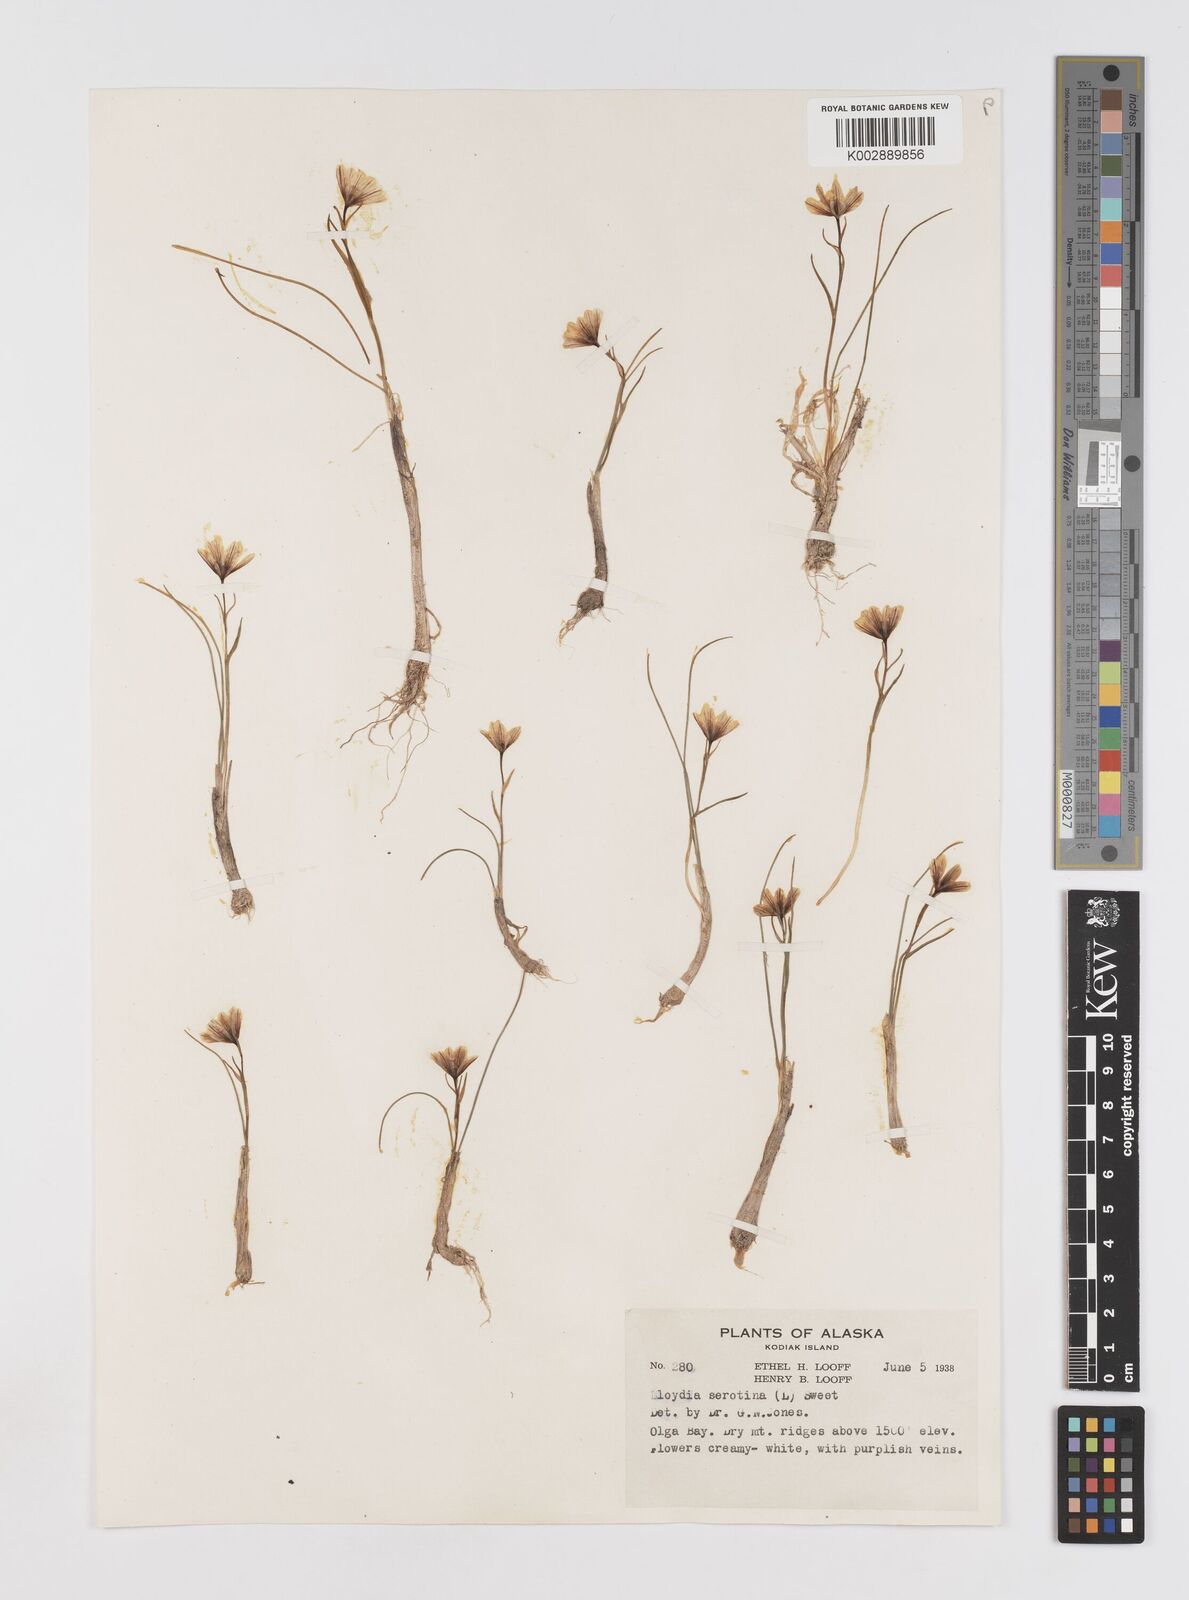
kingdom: Plantae
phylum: Tracheophyta
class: Liliopsida
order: Liliales
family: Liliaceae
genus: Gagea
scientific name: Gagea serotina
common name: Snowdon lily
